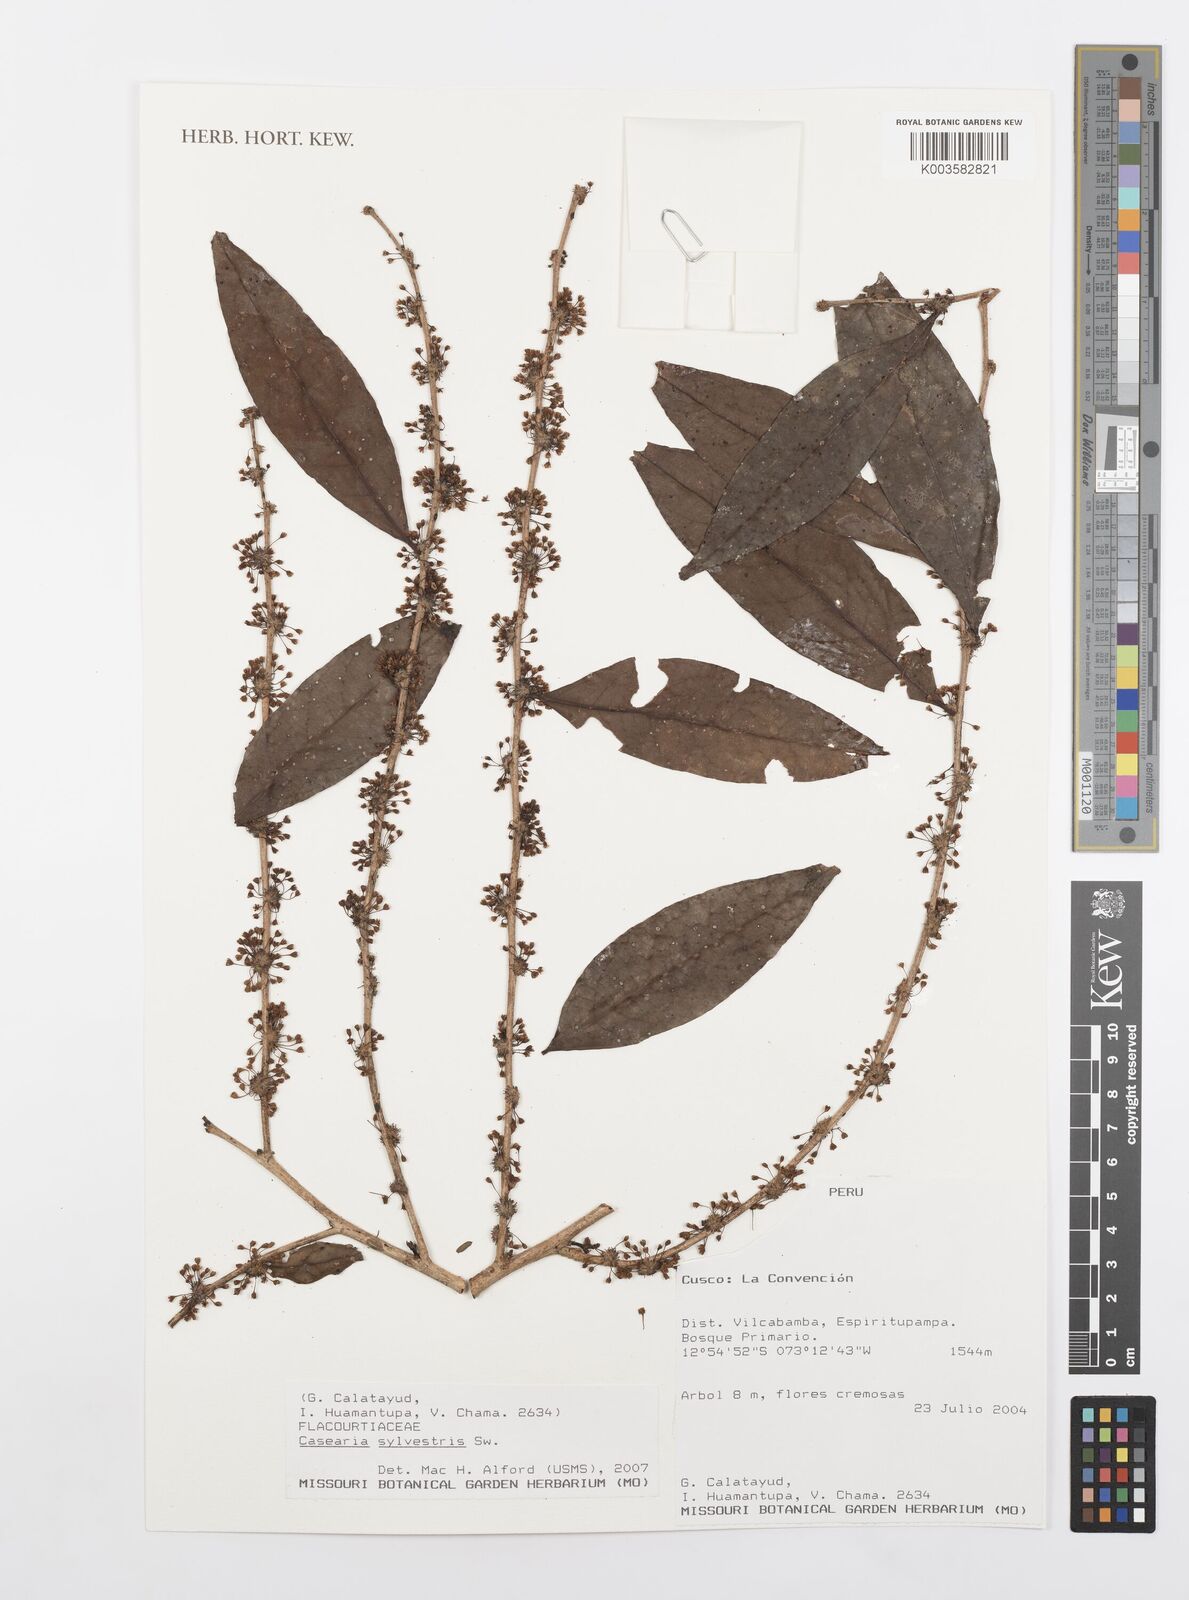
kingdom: Plantae
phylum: Tracheophyta
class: Magnoliopsida
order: Malpighiales
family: Salicaceae
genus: Casearia
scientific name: Casearia sylvestris
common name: Wild sage
